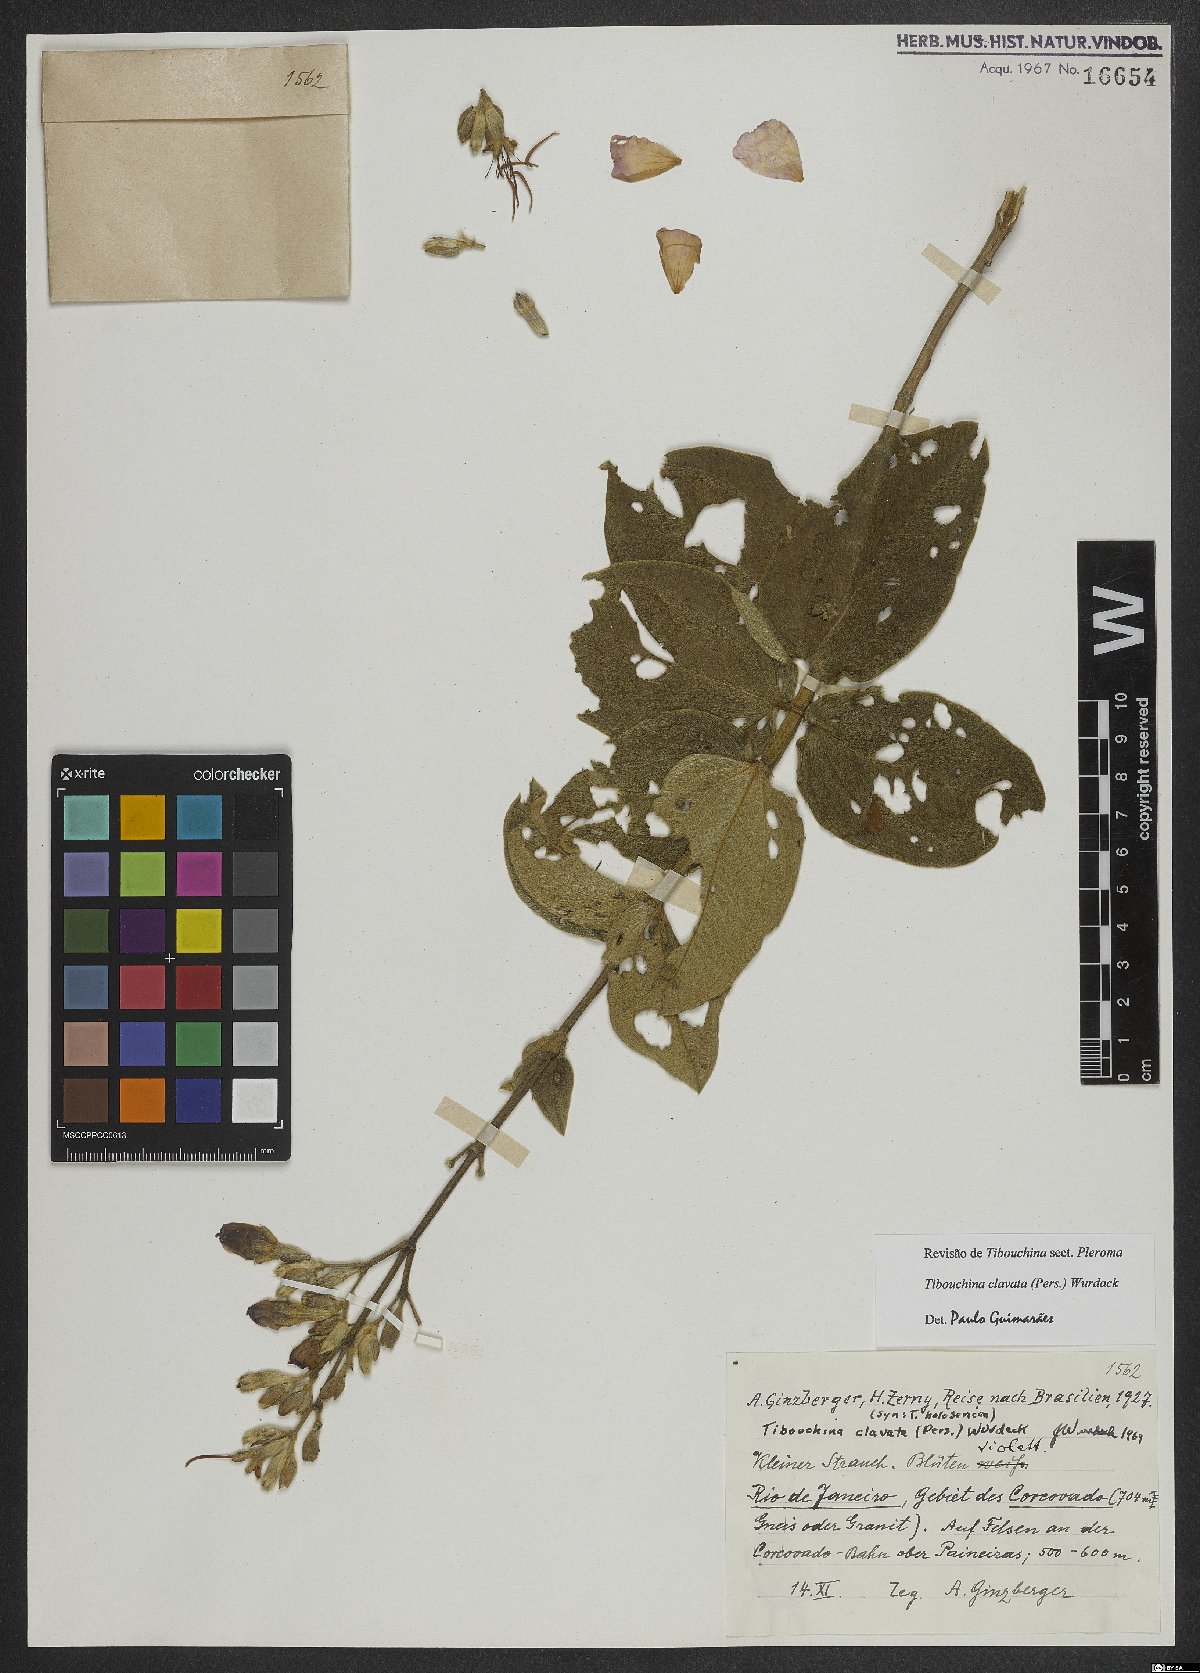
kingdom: Plantae
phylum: Tracheophyta
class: Magnoliopsida
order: Myrtales
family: Melastomataceae
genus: Pleroma
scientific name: Pleroma clavatum
